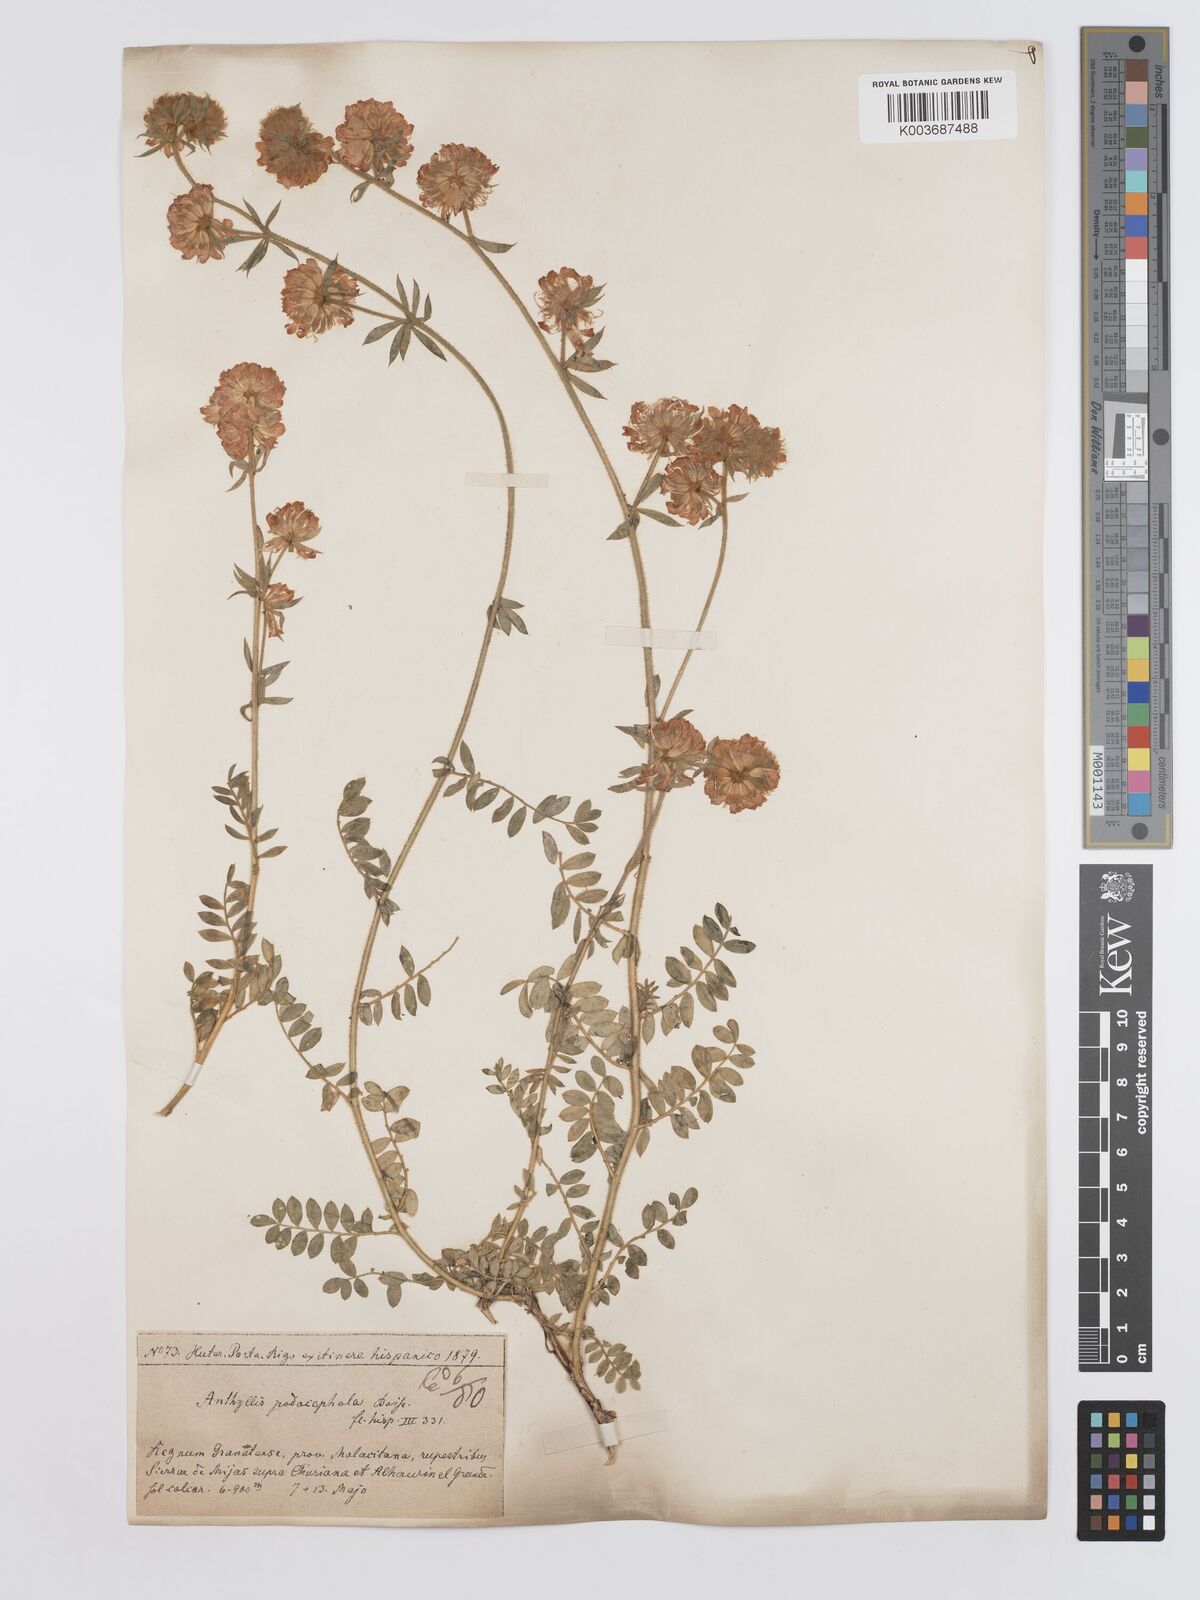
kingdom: Plantae
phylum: Tracheophyta
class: Magnoliopsida
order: Fabales
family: Fabaceae
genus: Anthyllis
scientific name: Anthyllis polycephala
